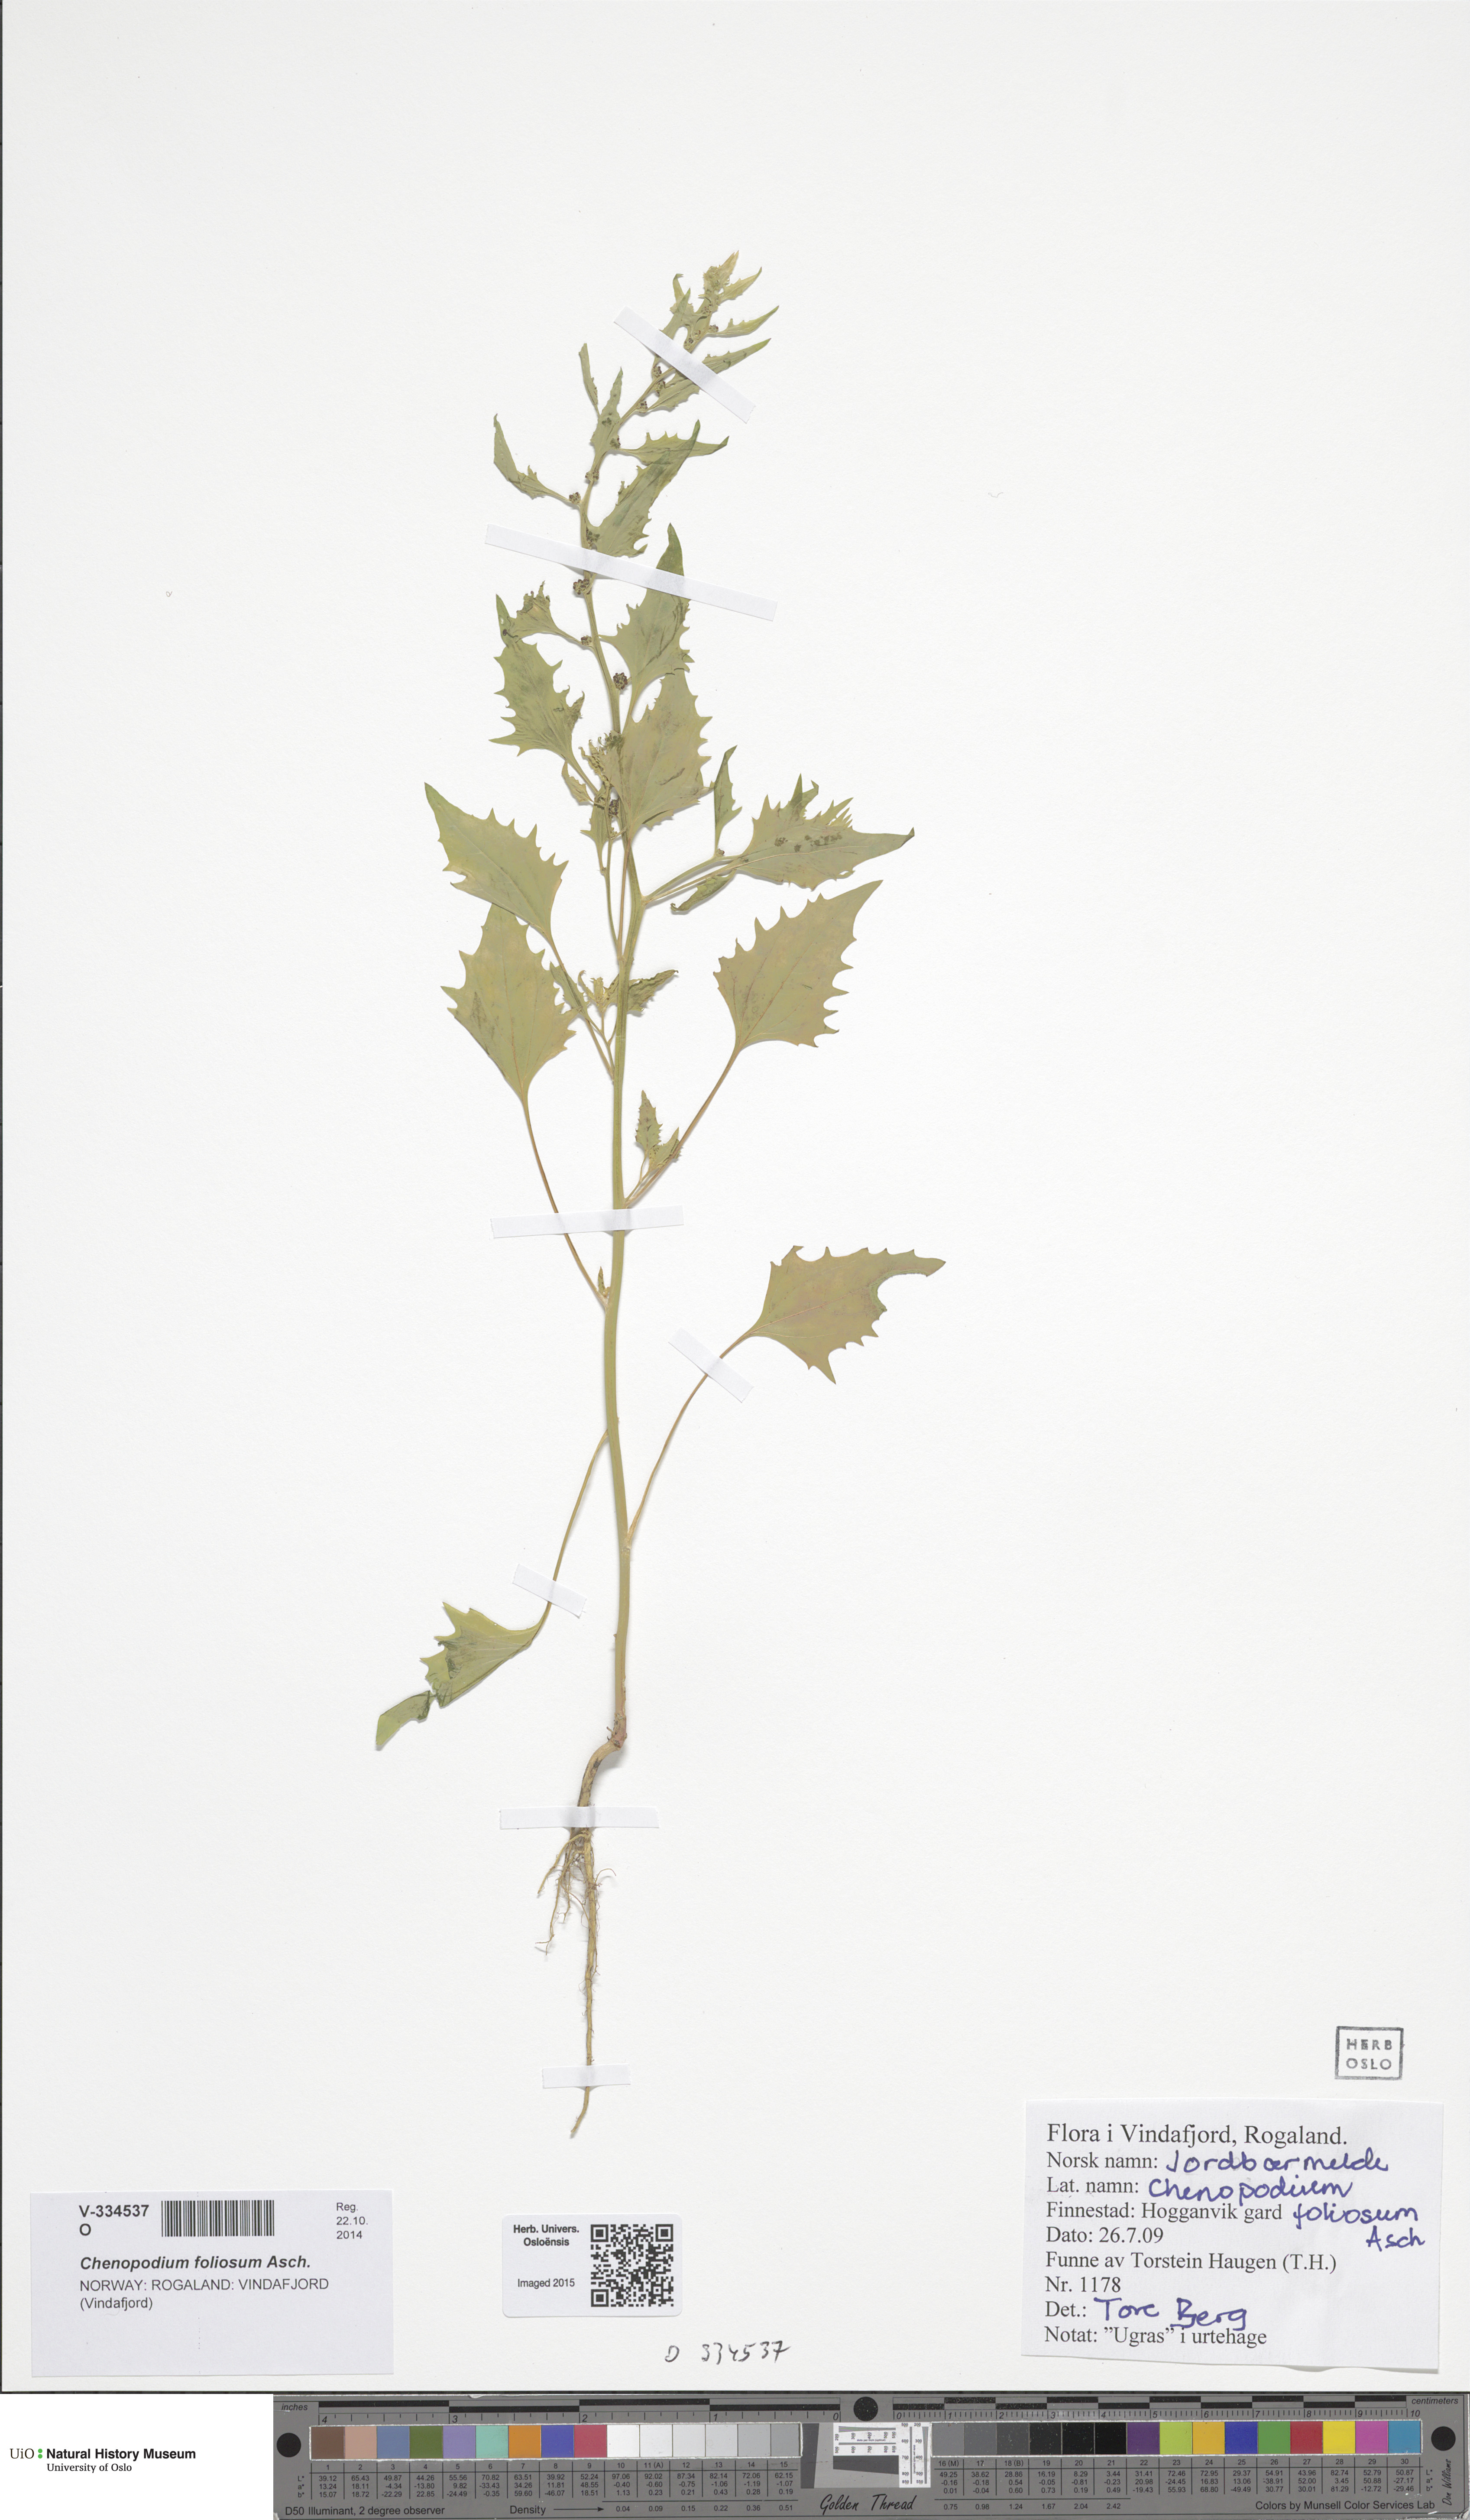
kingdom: Plantae
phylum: Tracheophyta
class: Magnoliopsida
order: Caryophyllales
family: Amaranthaceae
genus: Blitum
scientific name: Blitum virgatum
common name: Strawberry goosefoot
